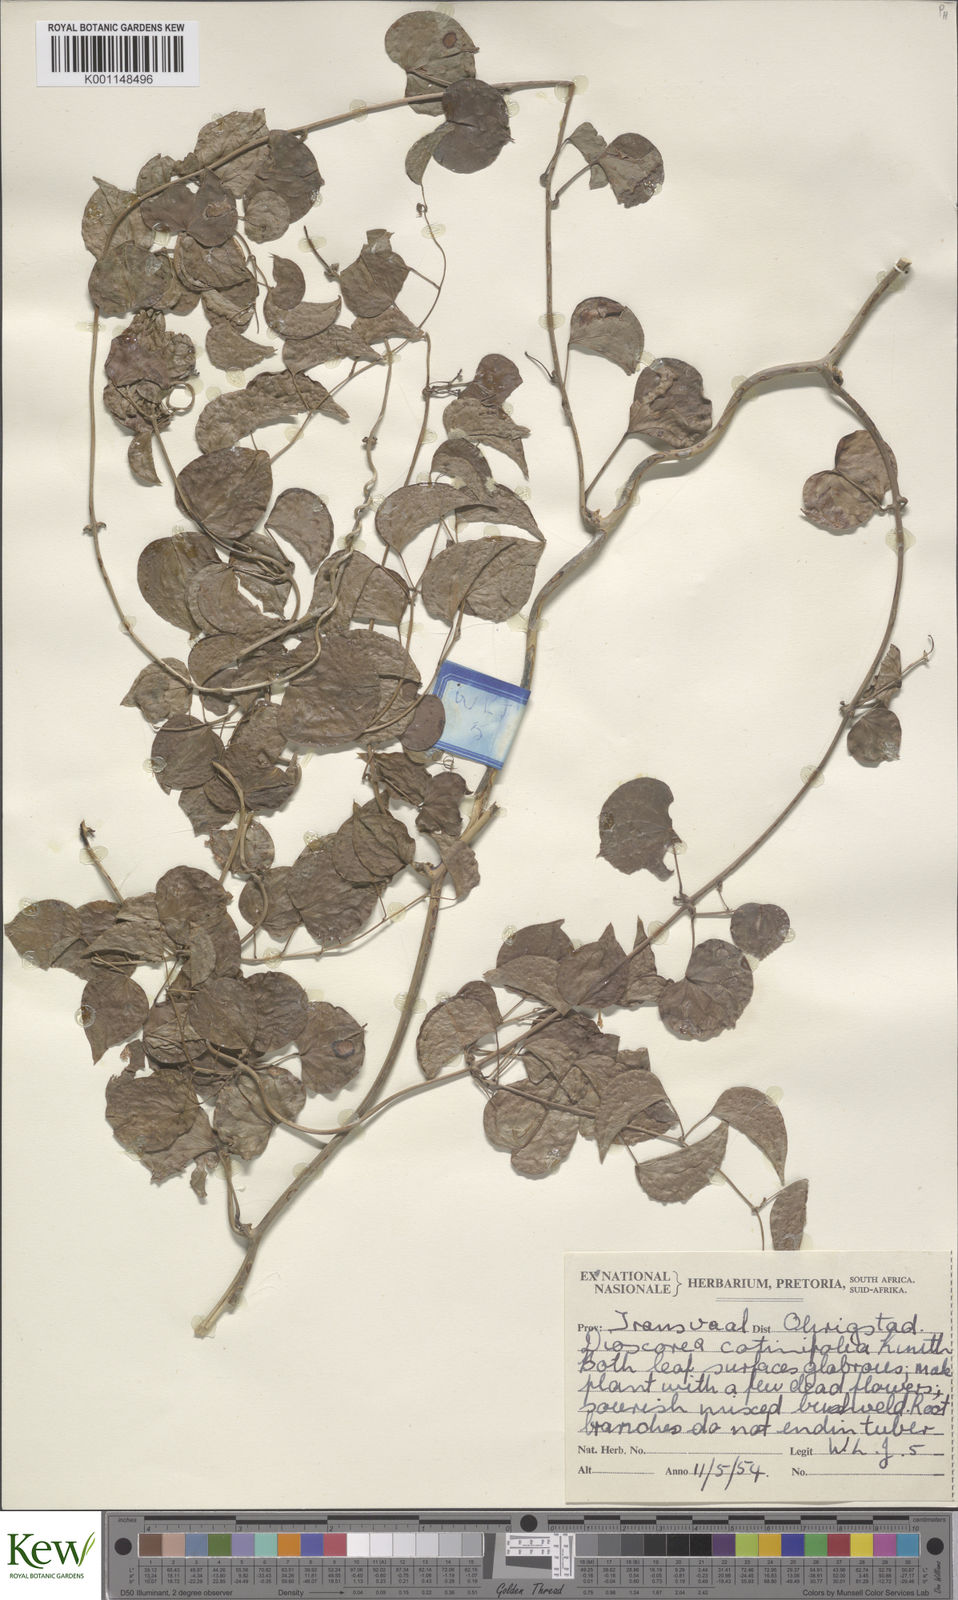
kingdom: Plantae
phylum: Tracheophyta
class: Liliopsida
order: Dioscoreales
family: Dioscoreaceae
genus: Dioscorea
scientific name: Dioscorea cotinifolia
